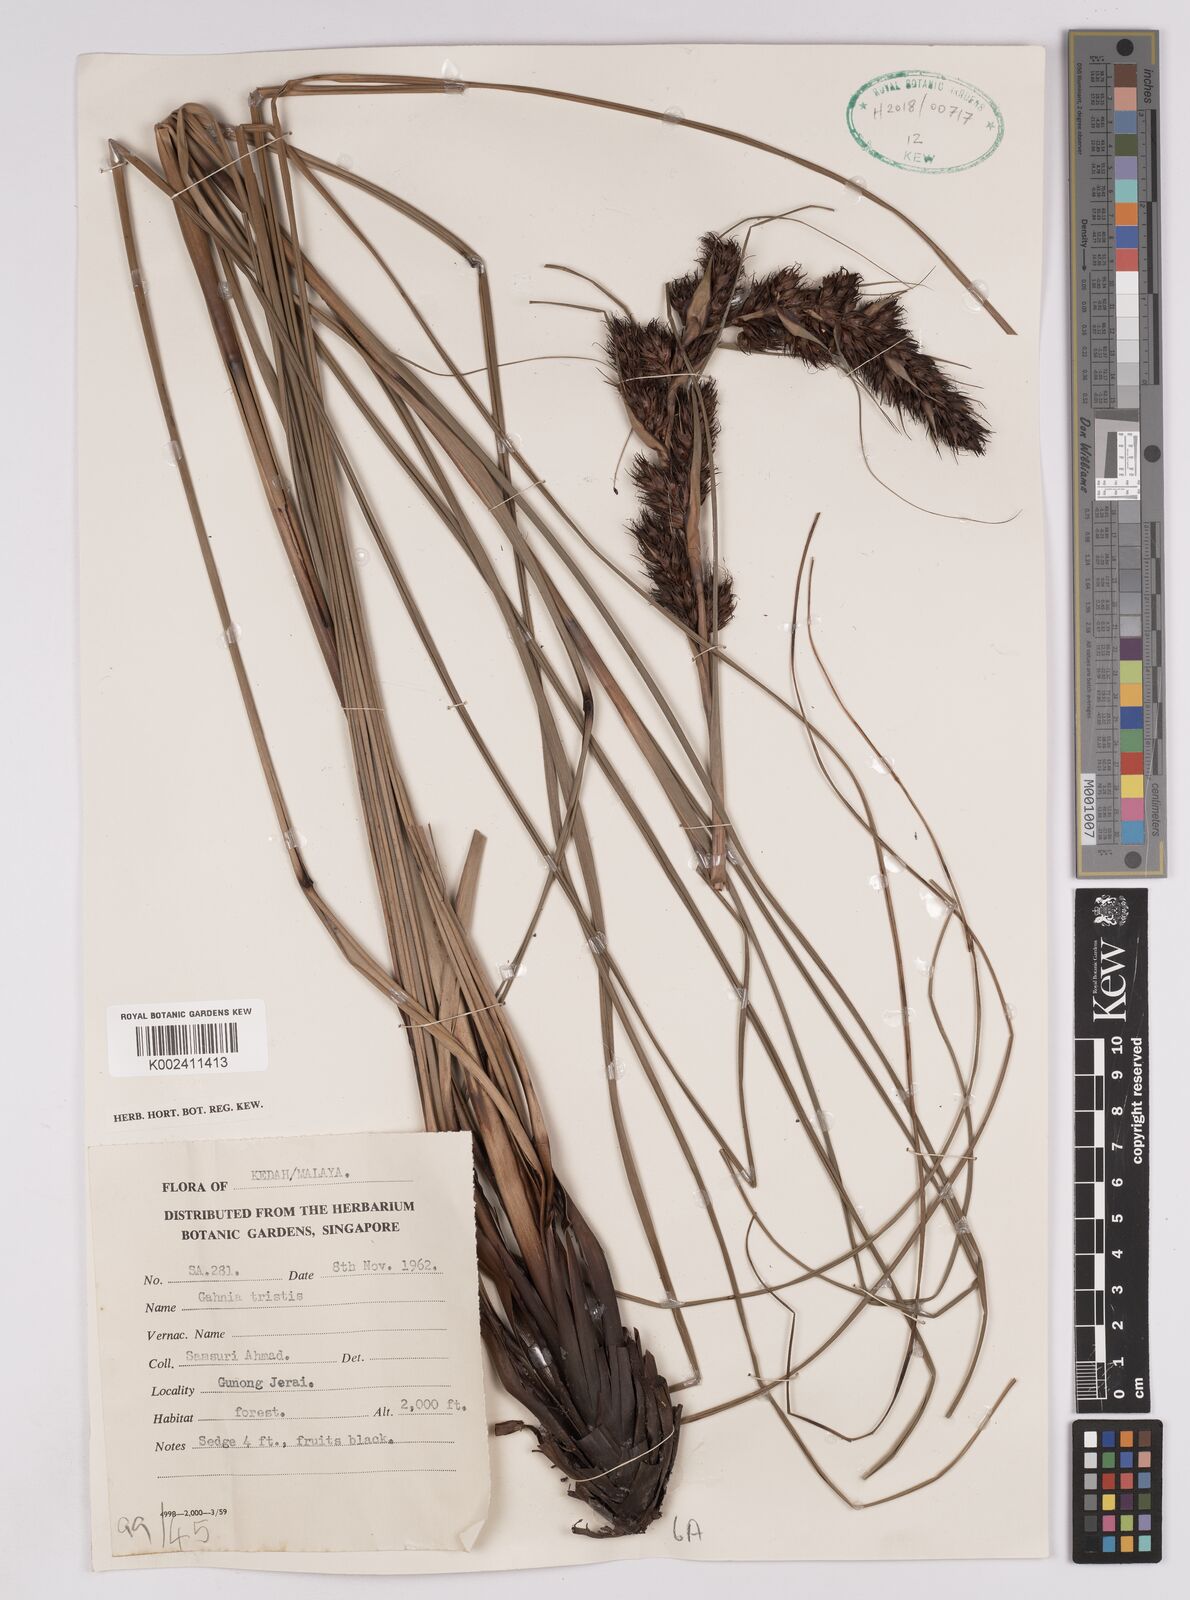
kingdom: Plantae
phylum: Tracheophyta
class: Liliopsida
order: Poales
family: Cyperaceae
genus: Gahnia
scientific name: Gahnia tristis
